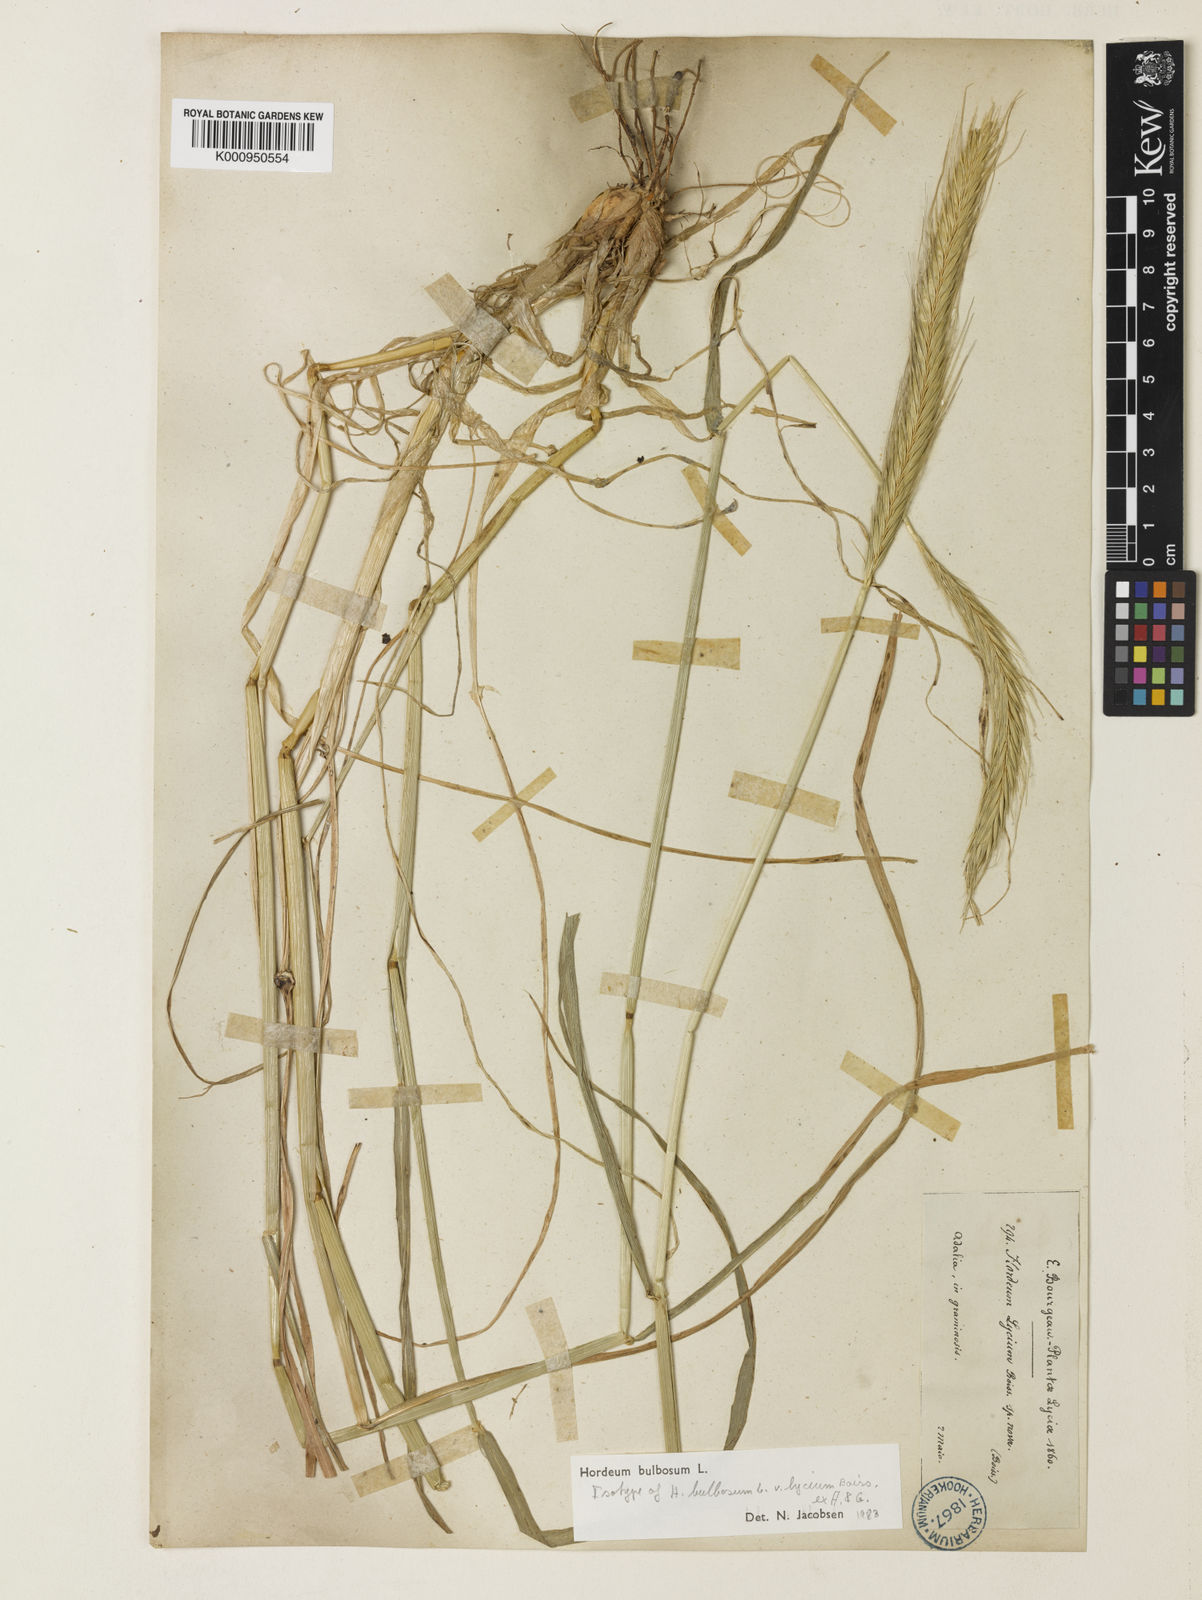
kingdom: Plantae
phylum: Tracheophyta
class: Liliopsida
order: Poales
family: Poaceae
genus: Hordeum
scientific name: Hordeum bulbosum
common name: Bulbous barley
